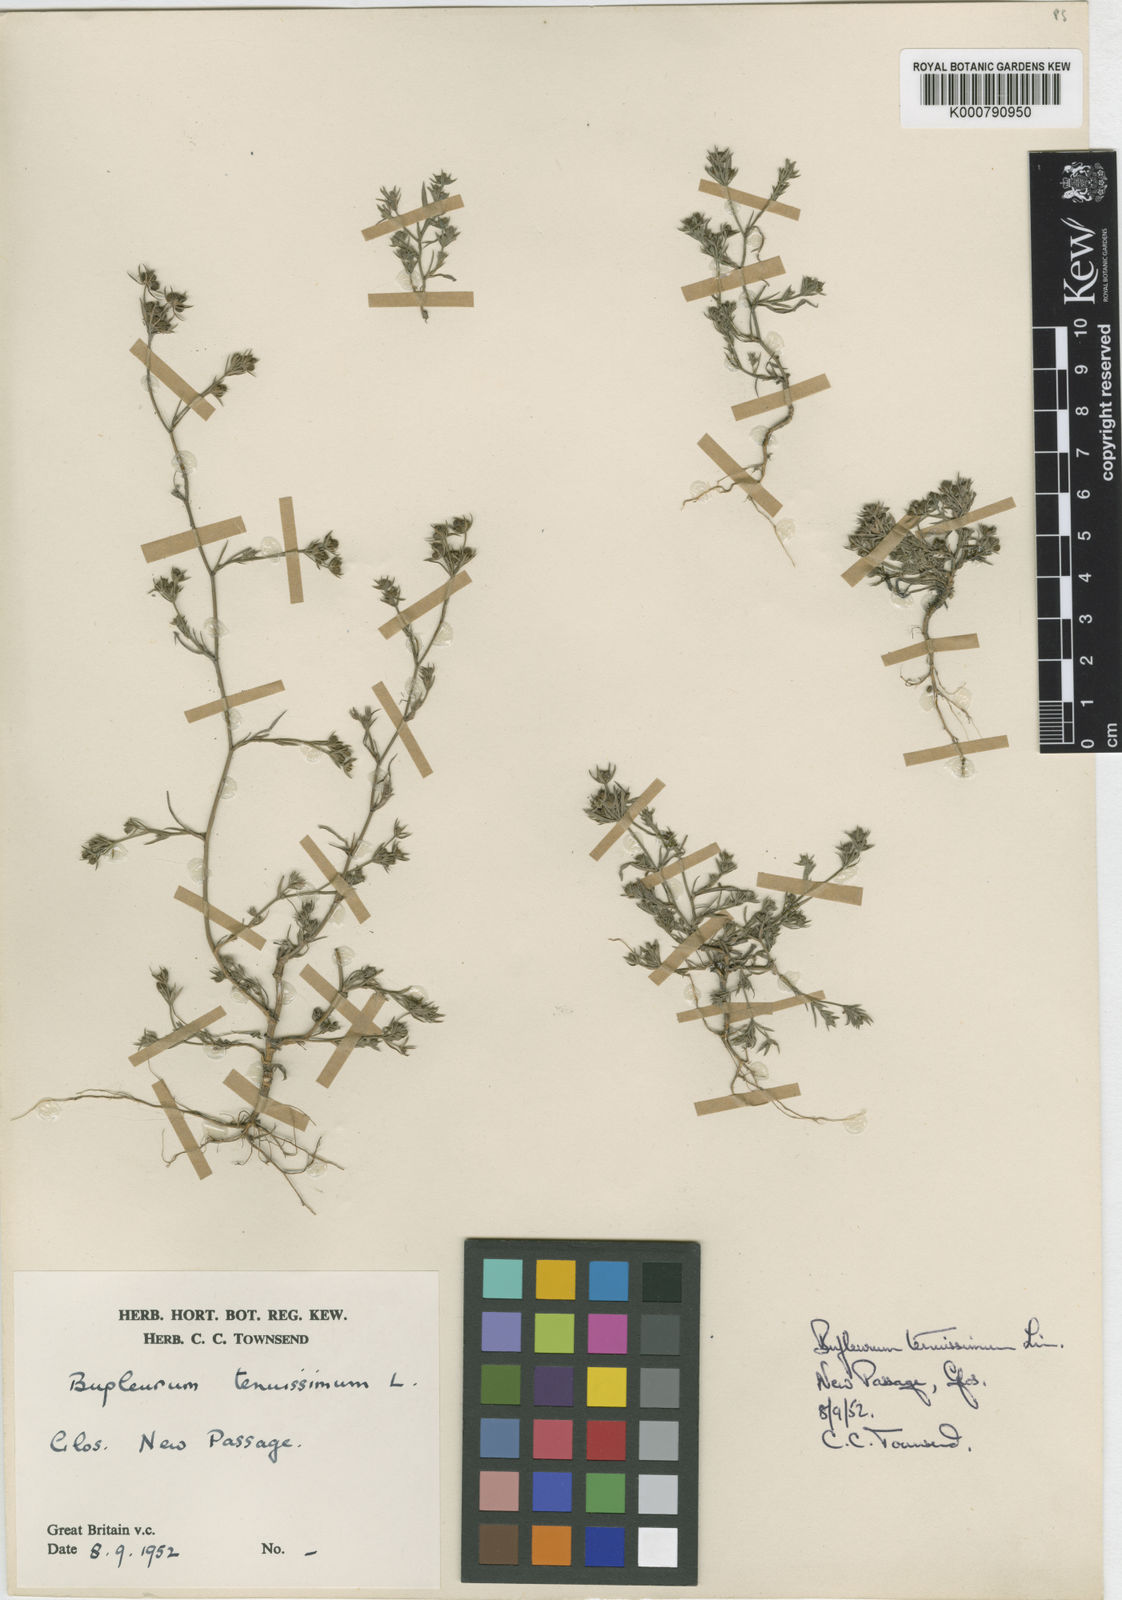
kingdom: Plantae
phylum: Tracheophyta
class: Magnoliopsida
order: Apiales
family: Apiaceae
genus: Bupleurum
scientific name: Bupleurum tenuissimum
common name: Slender hare's-ear
